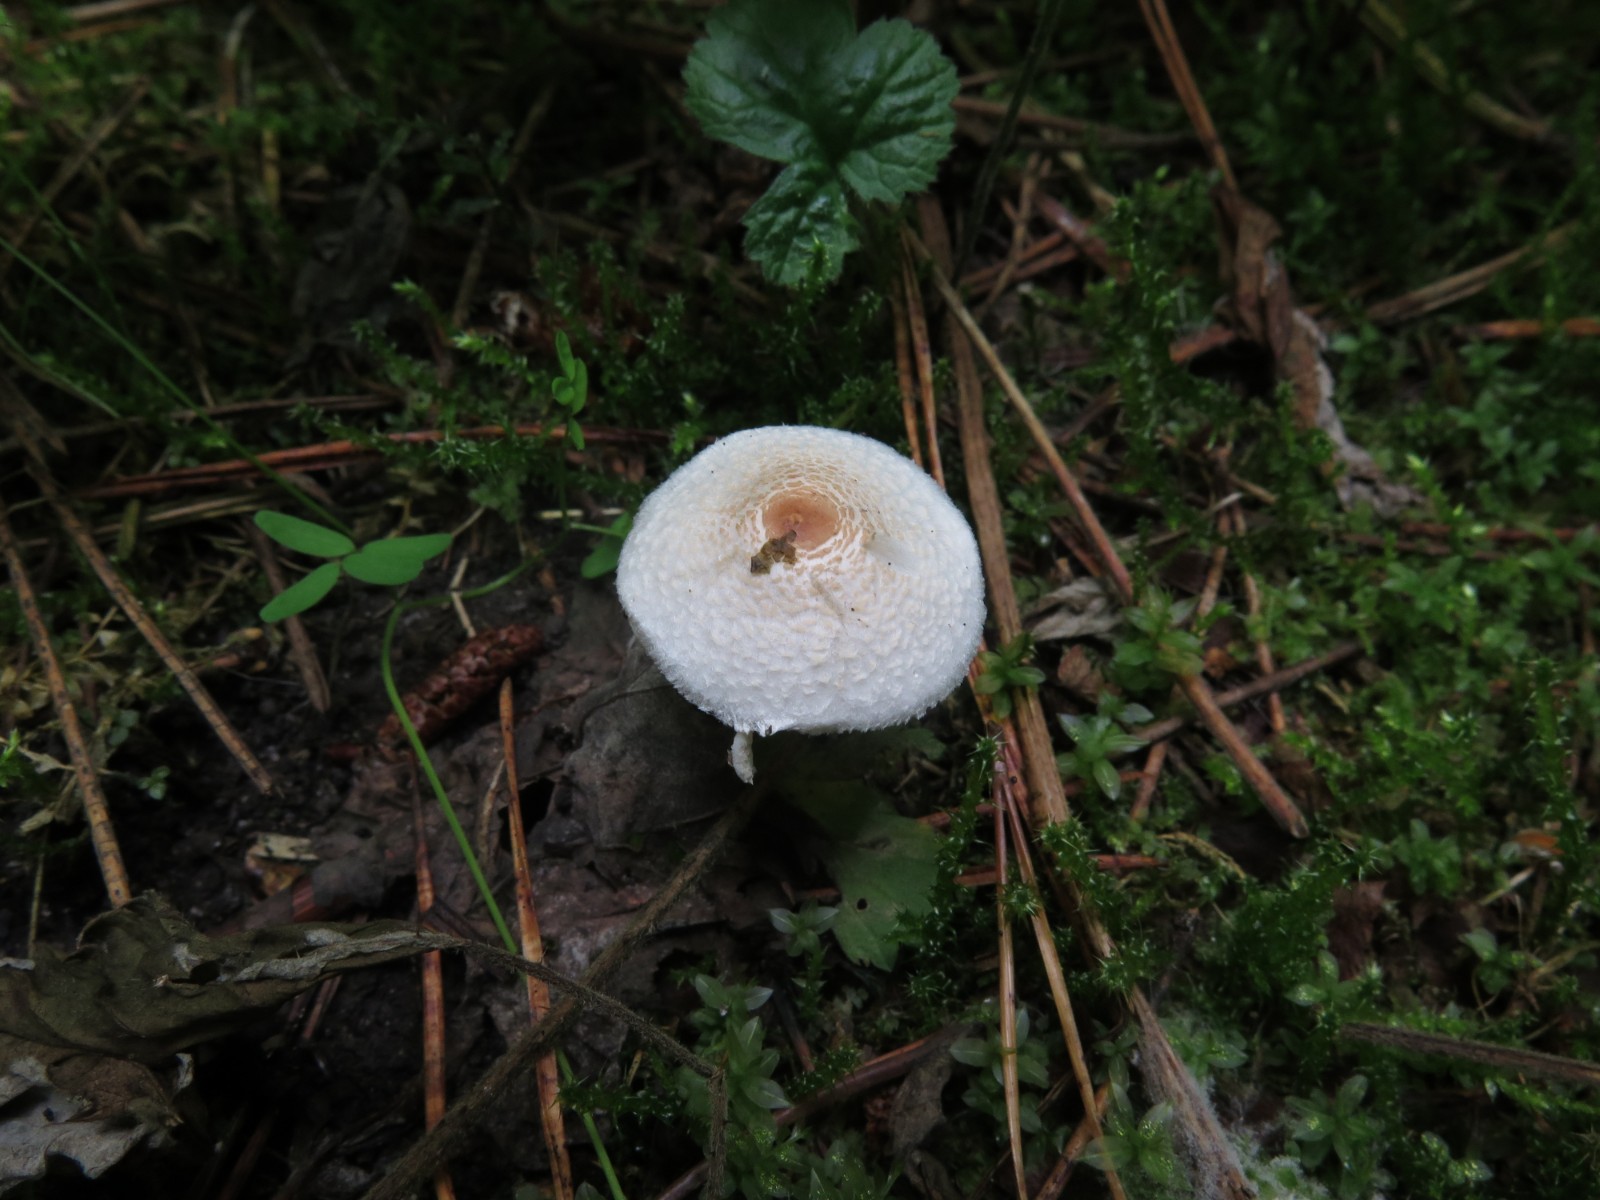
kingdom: Fungi
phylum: Basidiomycota
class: Agaricomycetes
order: Agaricales
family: Agaricaceae
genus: Lepiota
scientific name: Lepiota cristata
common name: stinkende parasolhat
